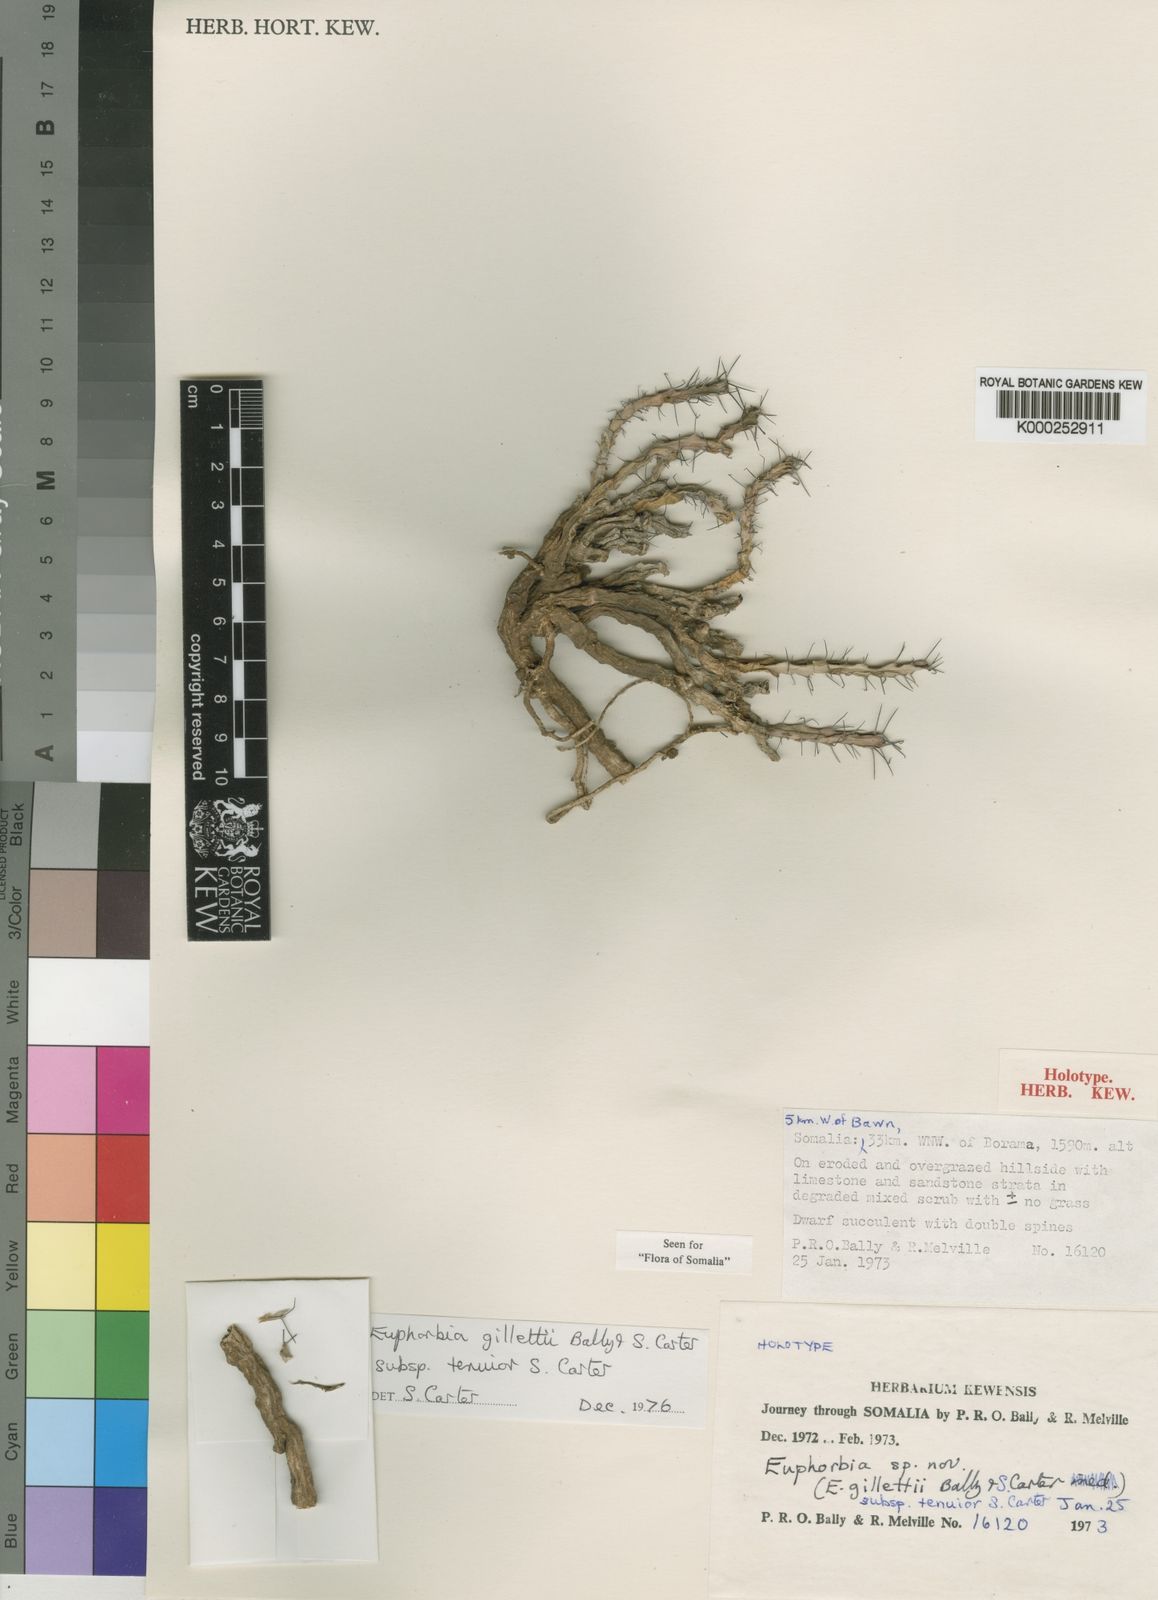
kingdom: Plantae
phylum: Tracheophyta
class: Magnoliopsida
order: Malpighiales
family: Euphorbiaceae
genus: Euphorbia
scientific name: Euphorbia gillettii
